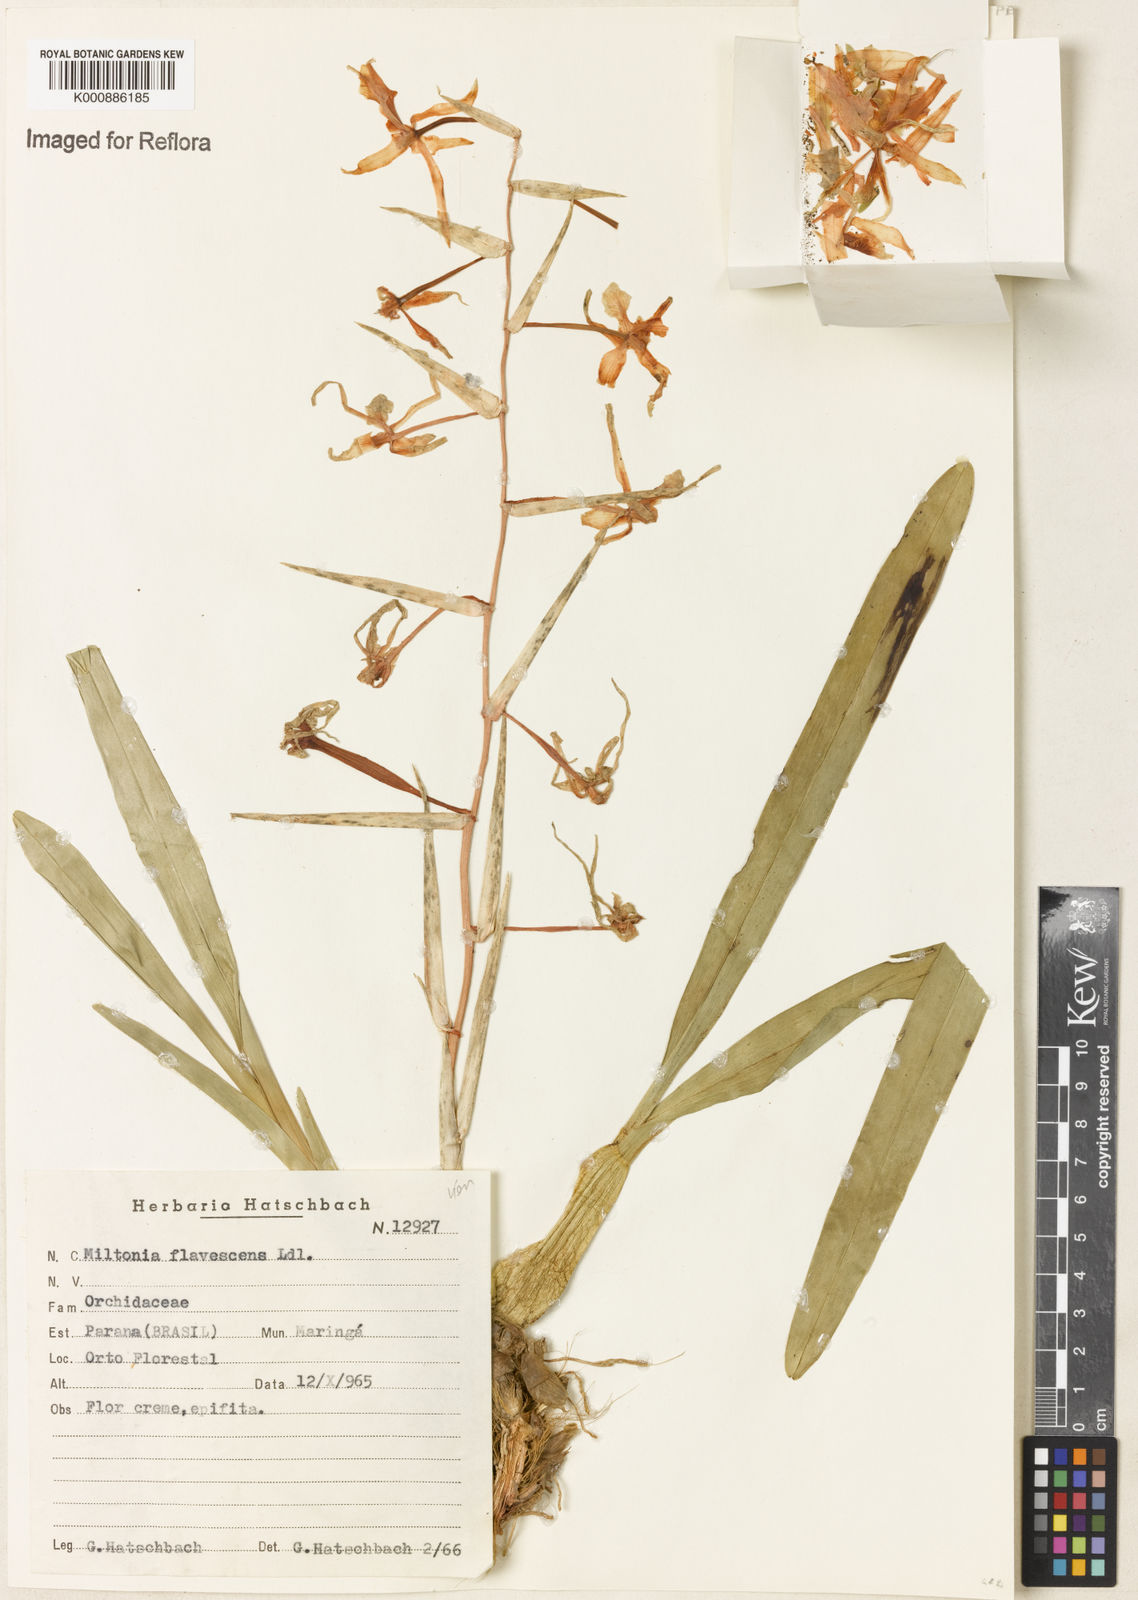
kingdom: Plantae
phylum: Tracheophyta
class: Liliopsida
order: Asparagales
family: Orchidaceae
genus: Miltonia
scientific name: Miltonia flavescens
